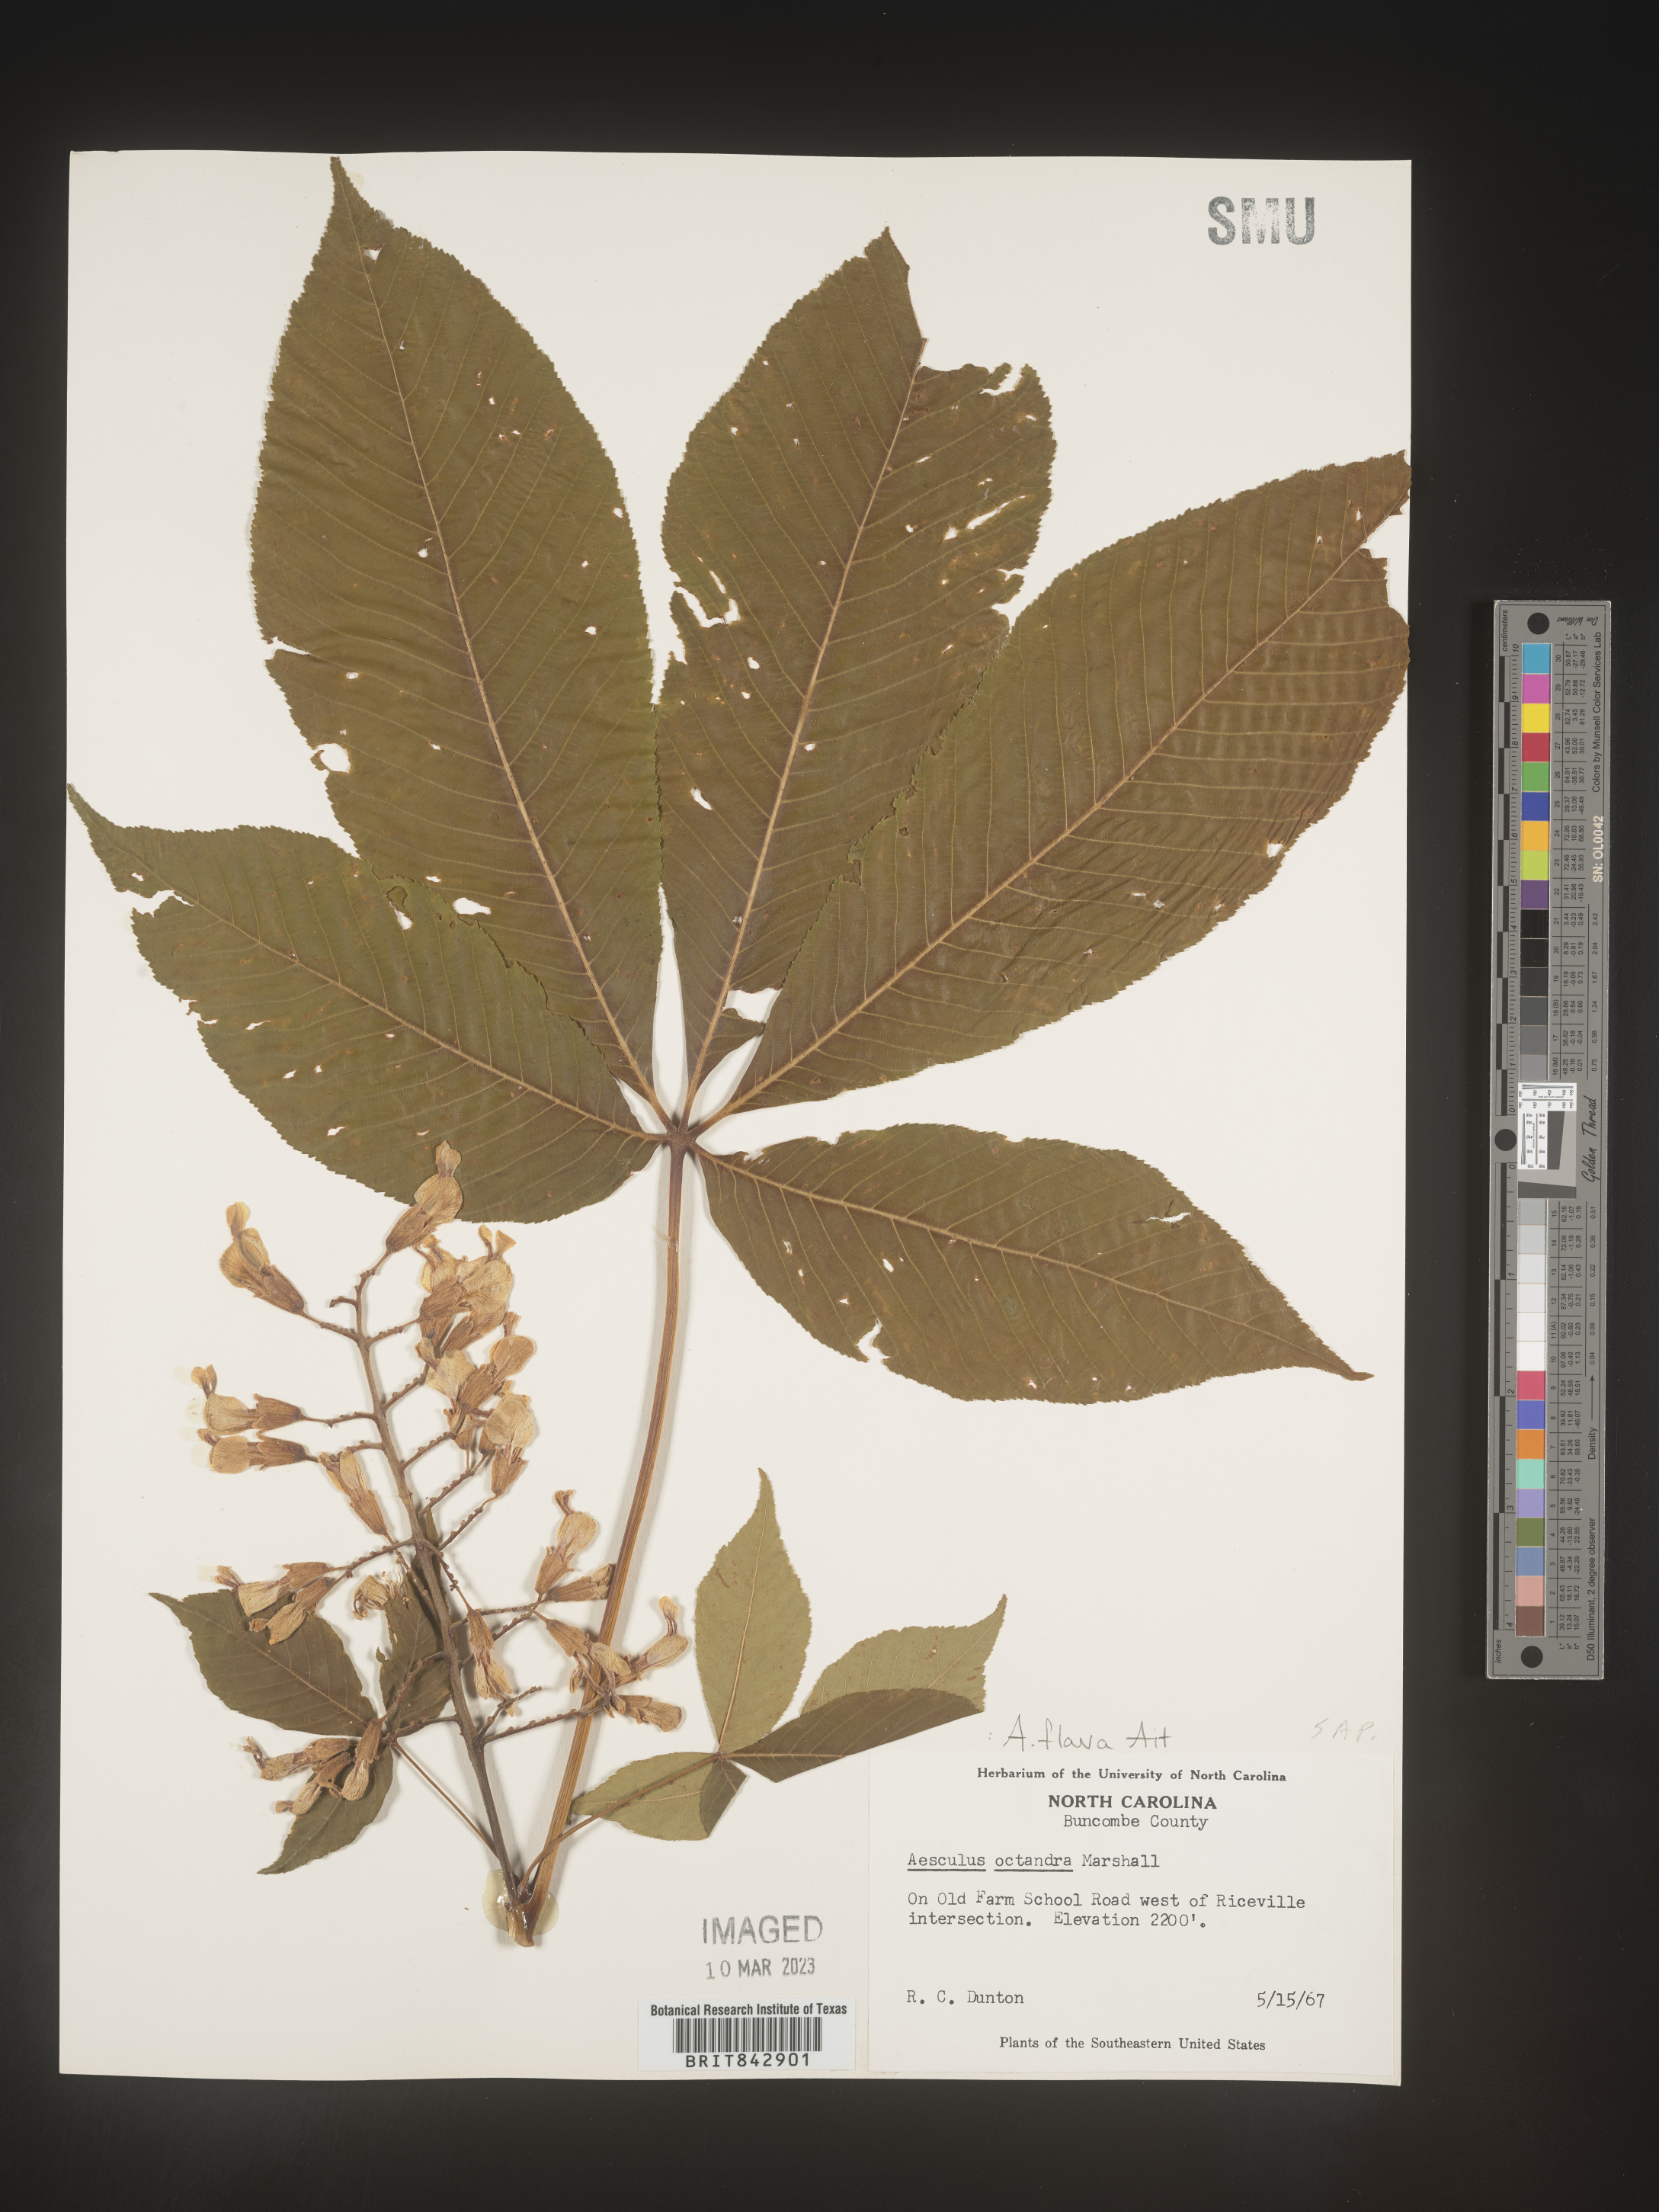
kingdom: Plantae
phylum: Tracheophyta
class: Magnoliopsida
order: Sapindales
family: Sapindaceae
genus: Aesculus
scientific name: Aesculus flava
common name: Yellow buckeye
